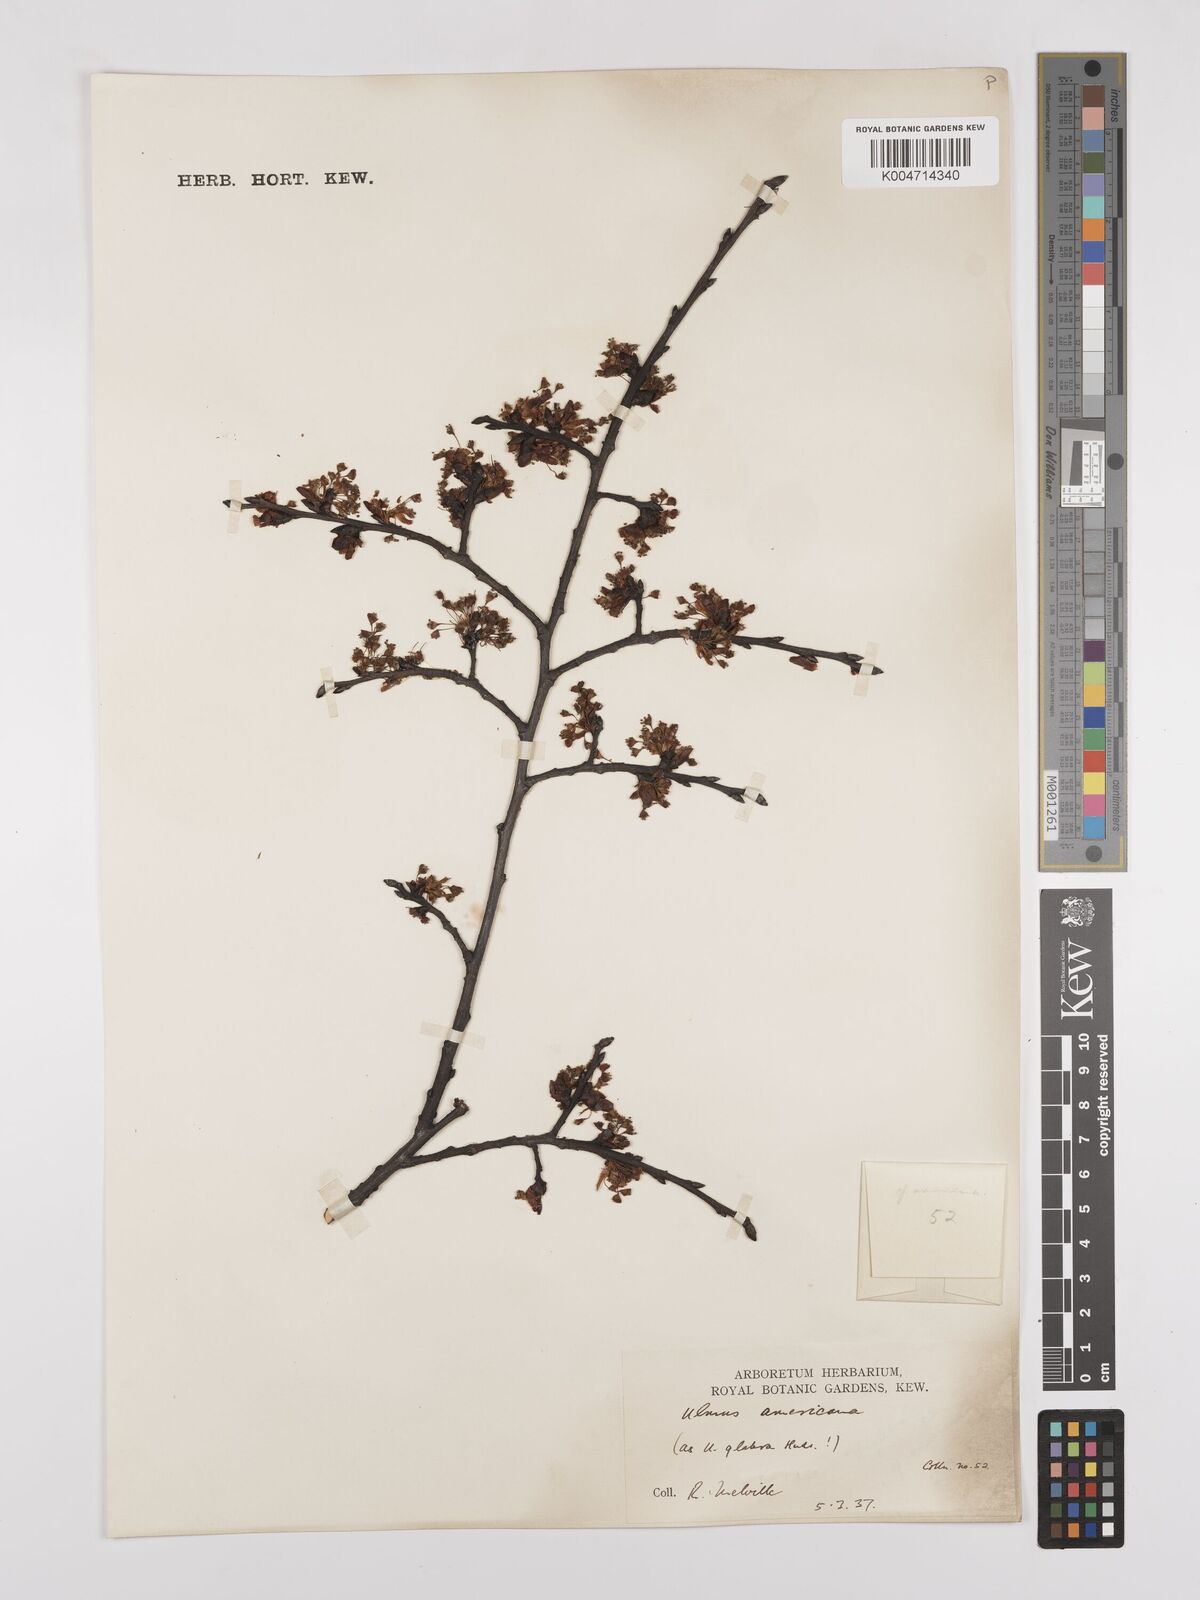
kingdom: Plantae
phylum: Tracheophyta
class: Magnoliopsida
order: Rosales
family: Ulmaceae
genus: Ulmus
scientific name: Ulmus americana
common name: American elm
